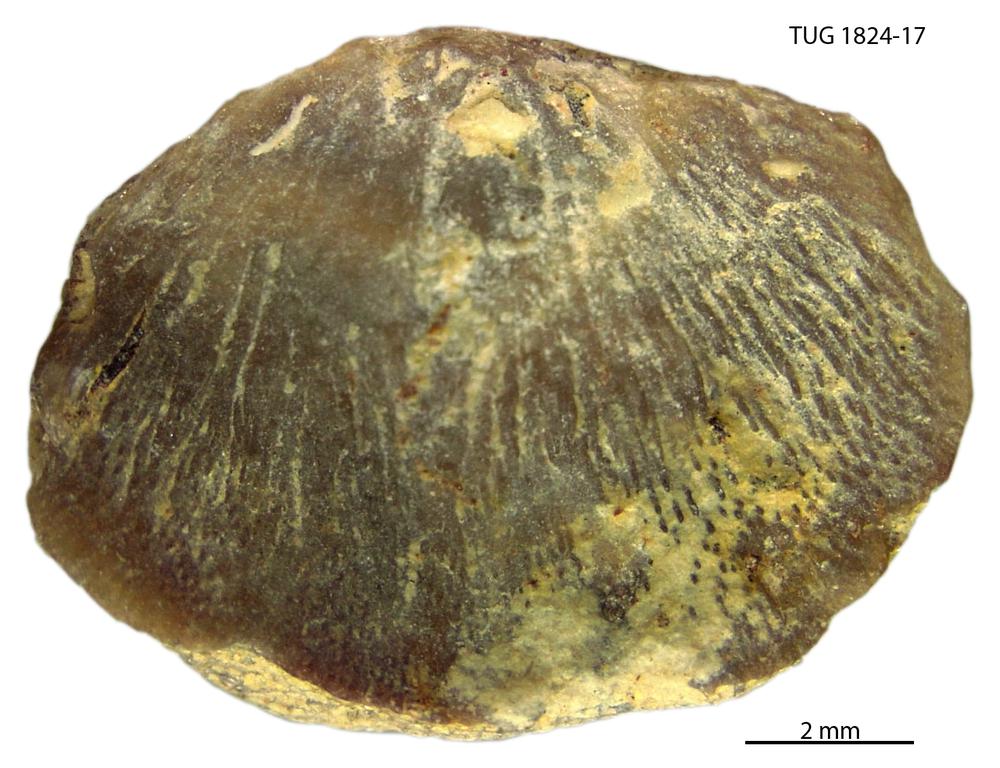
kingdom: Animalia
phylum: Brachiopoda
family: Sowerbyellidae
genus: Sowerbyella
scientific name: Sowerbyella
